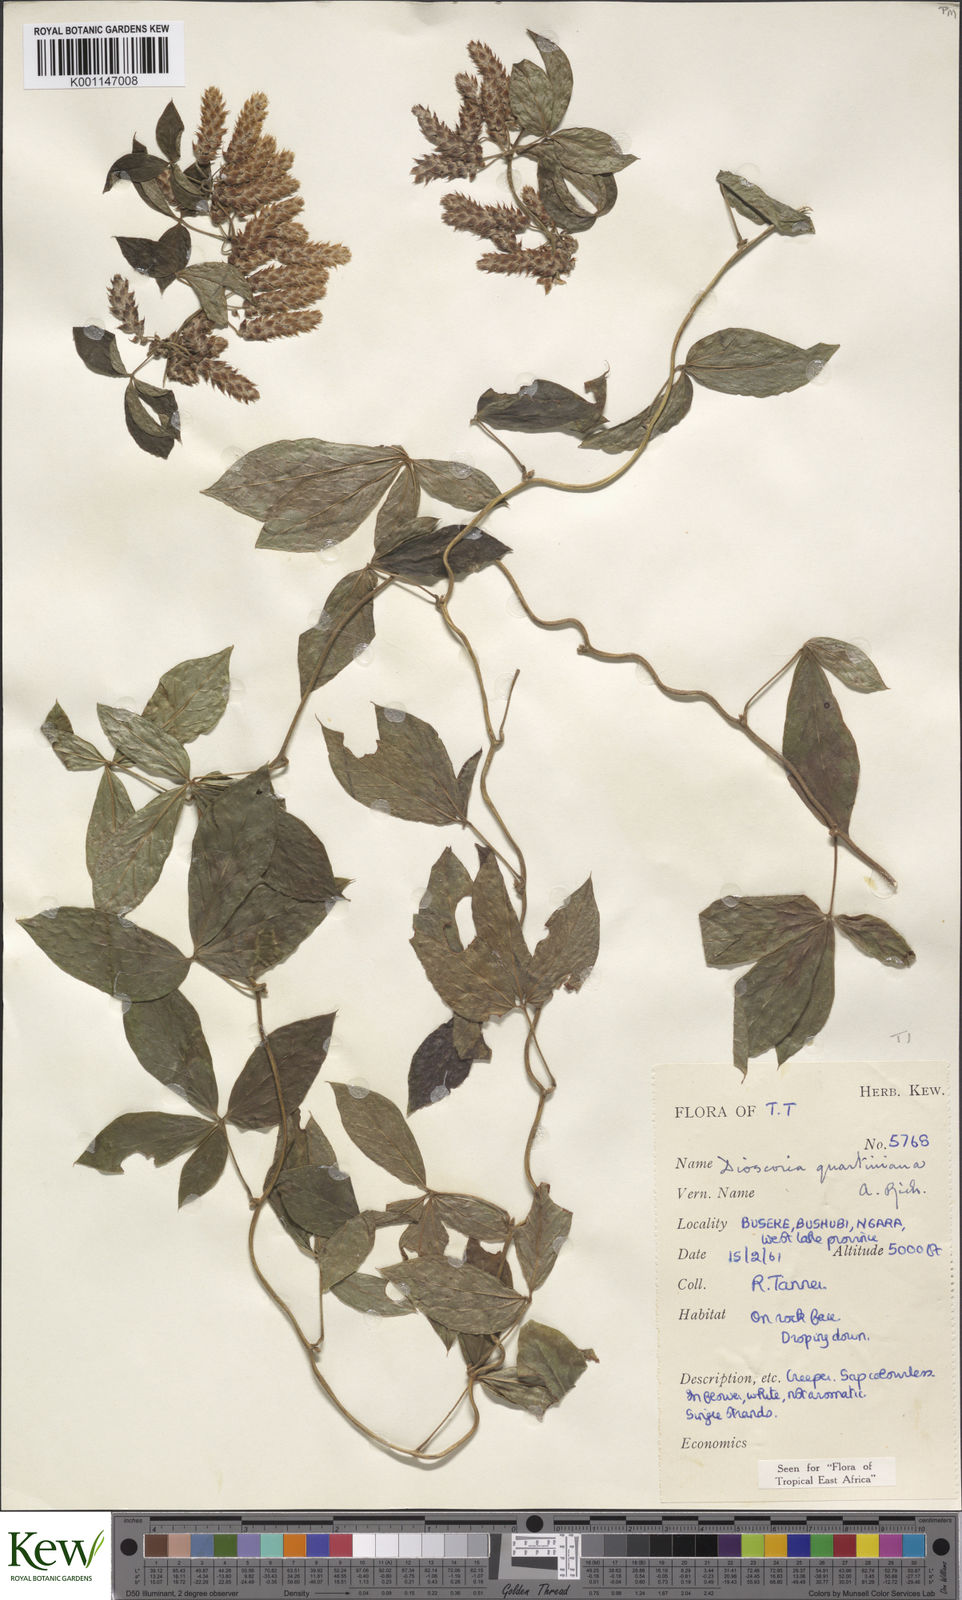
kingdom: Plantae
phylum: Tracheophyta
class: Liliopsida
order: Dioscoreales
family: Dioscoreaceae
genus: Dioscorea
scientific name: Dioscorea quartiniana
